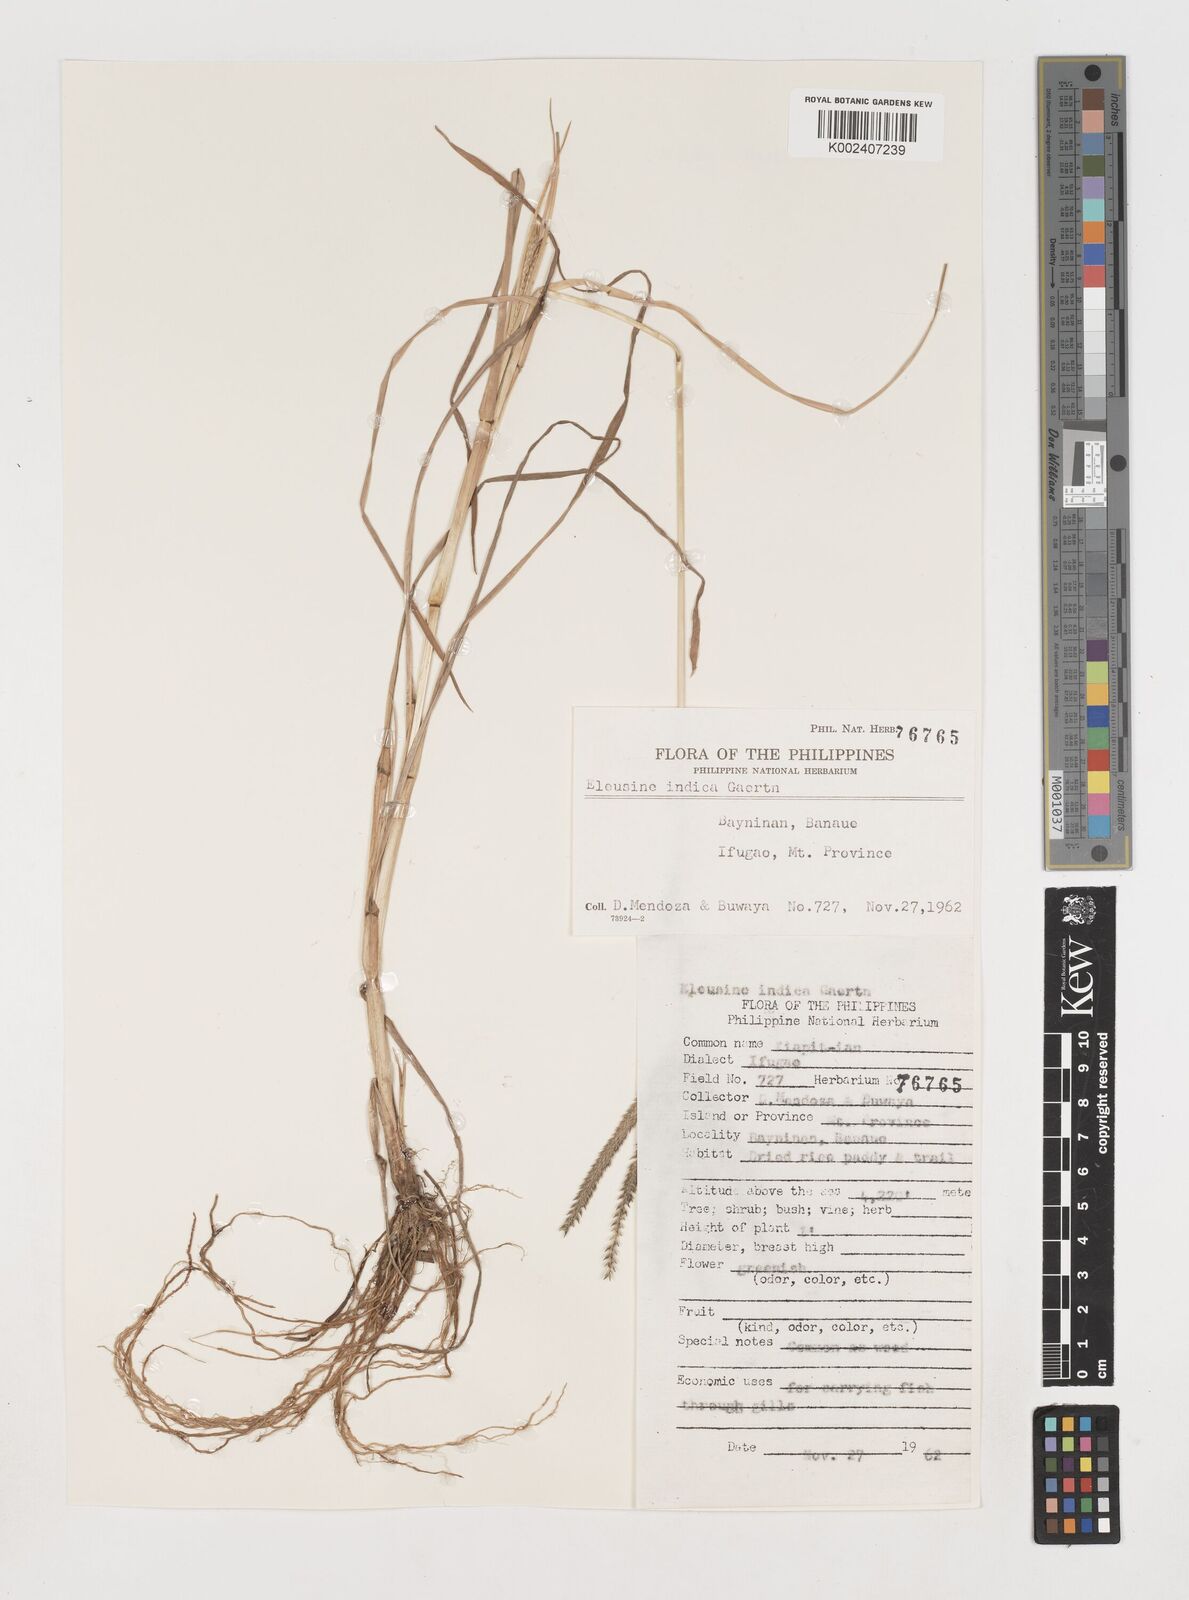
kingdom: Plantae
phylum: Tracheophyta
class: Liliopsida
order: Poales
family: Poaceae
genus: Eleusine
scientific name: Eleusine indica
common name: Yard-grass
